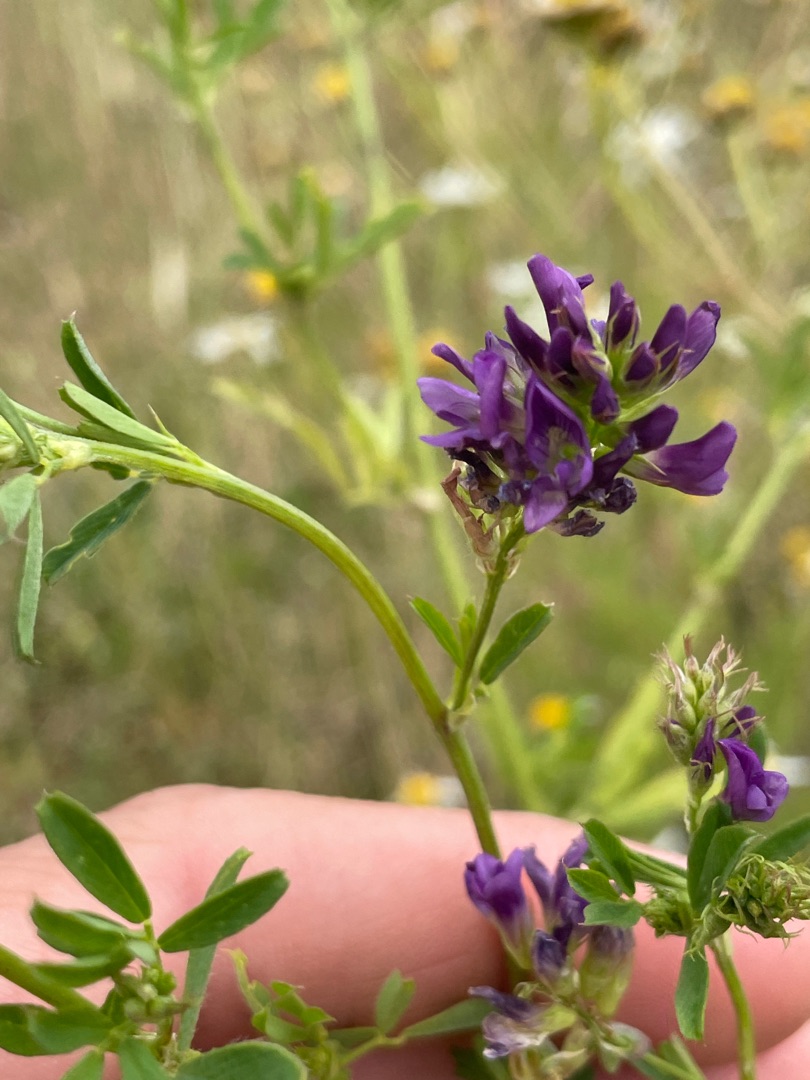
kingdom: Plantae
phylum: Tracheophyta
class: Magnoliopsida
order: Fabales
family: Fabaceae
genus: Medicago
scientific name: Medicago sativa
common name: Lucerne
